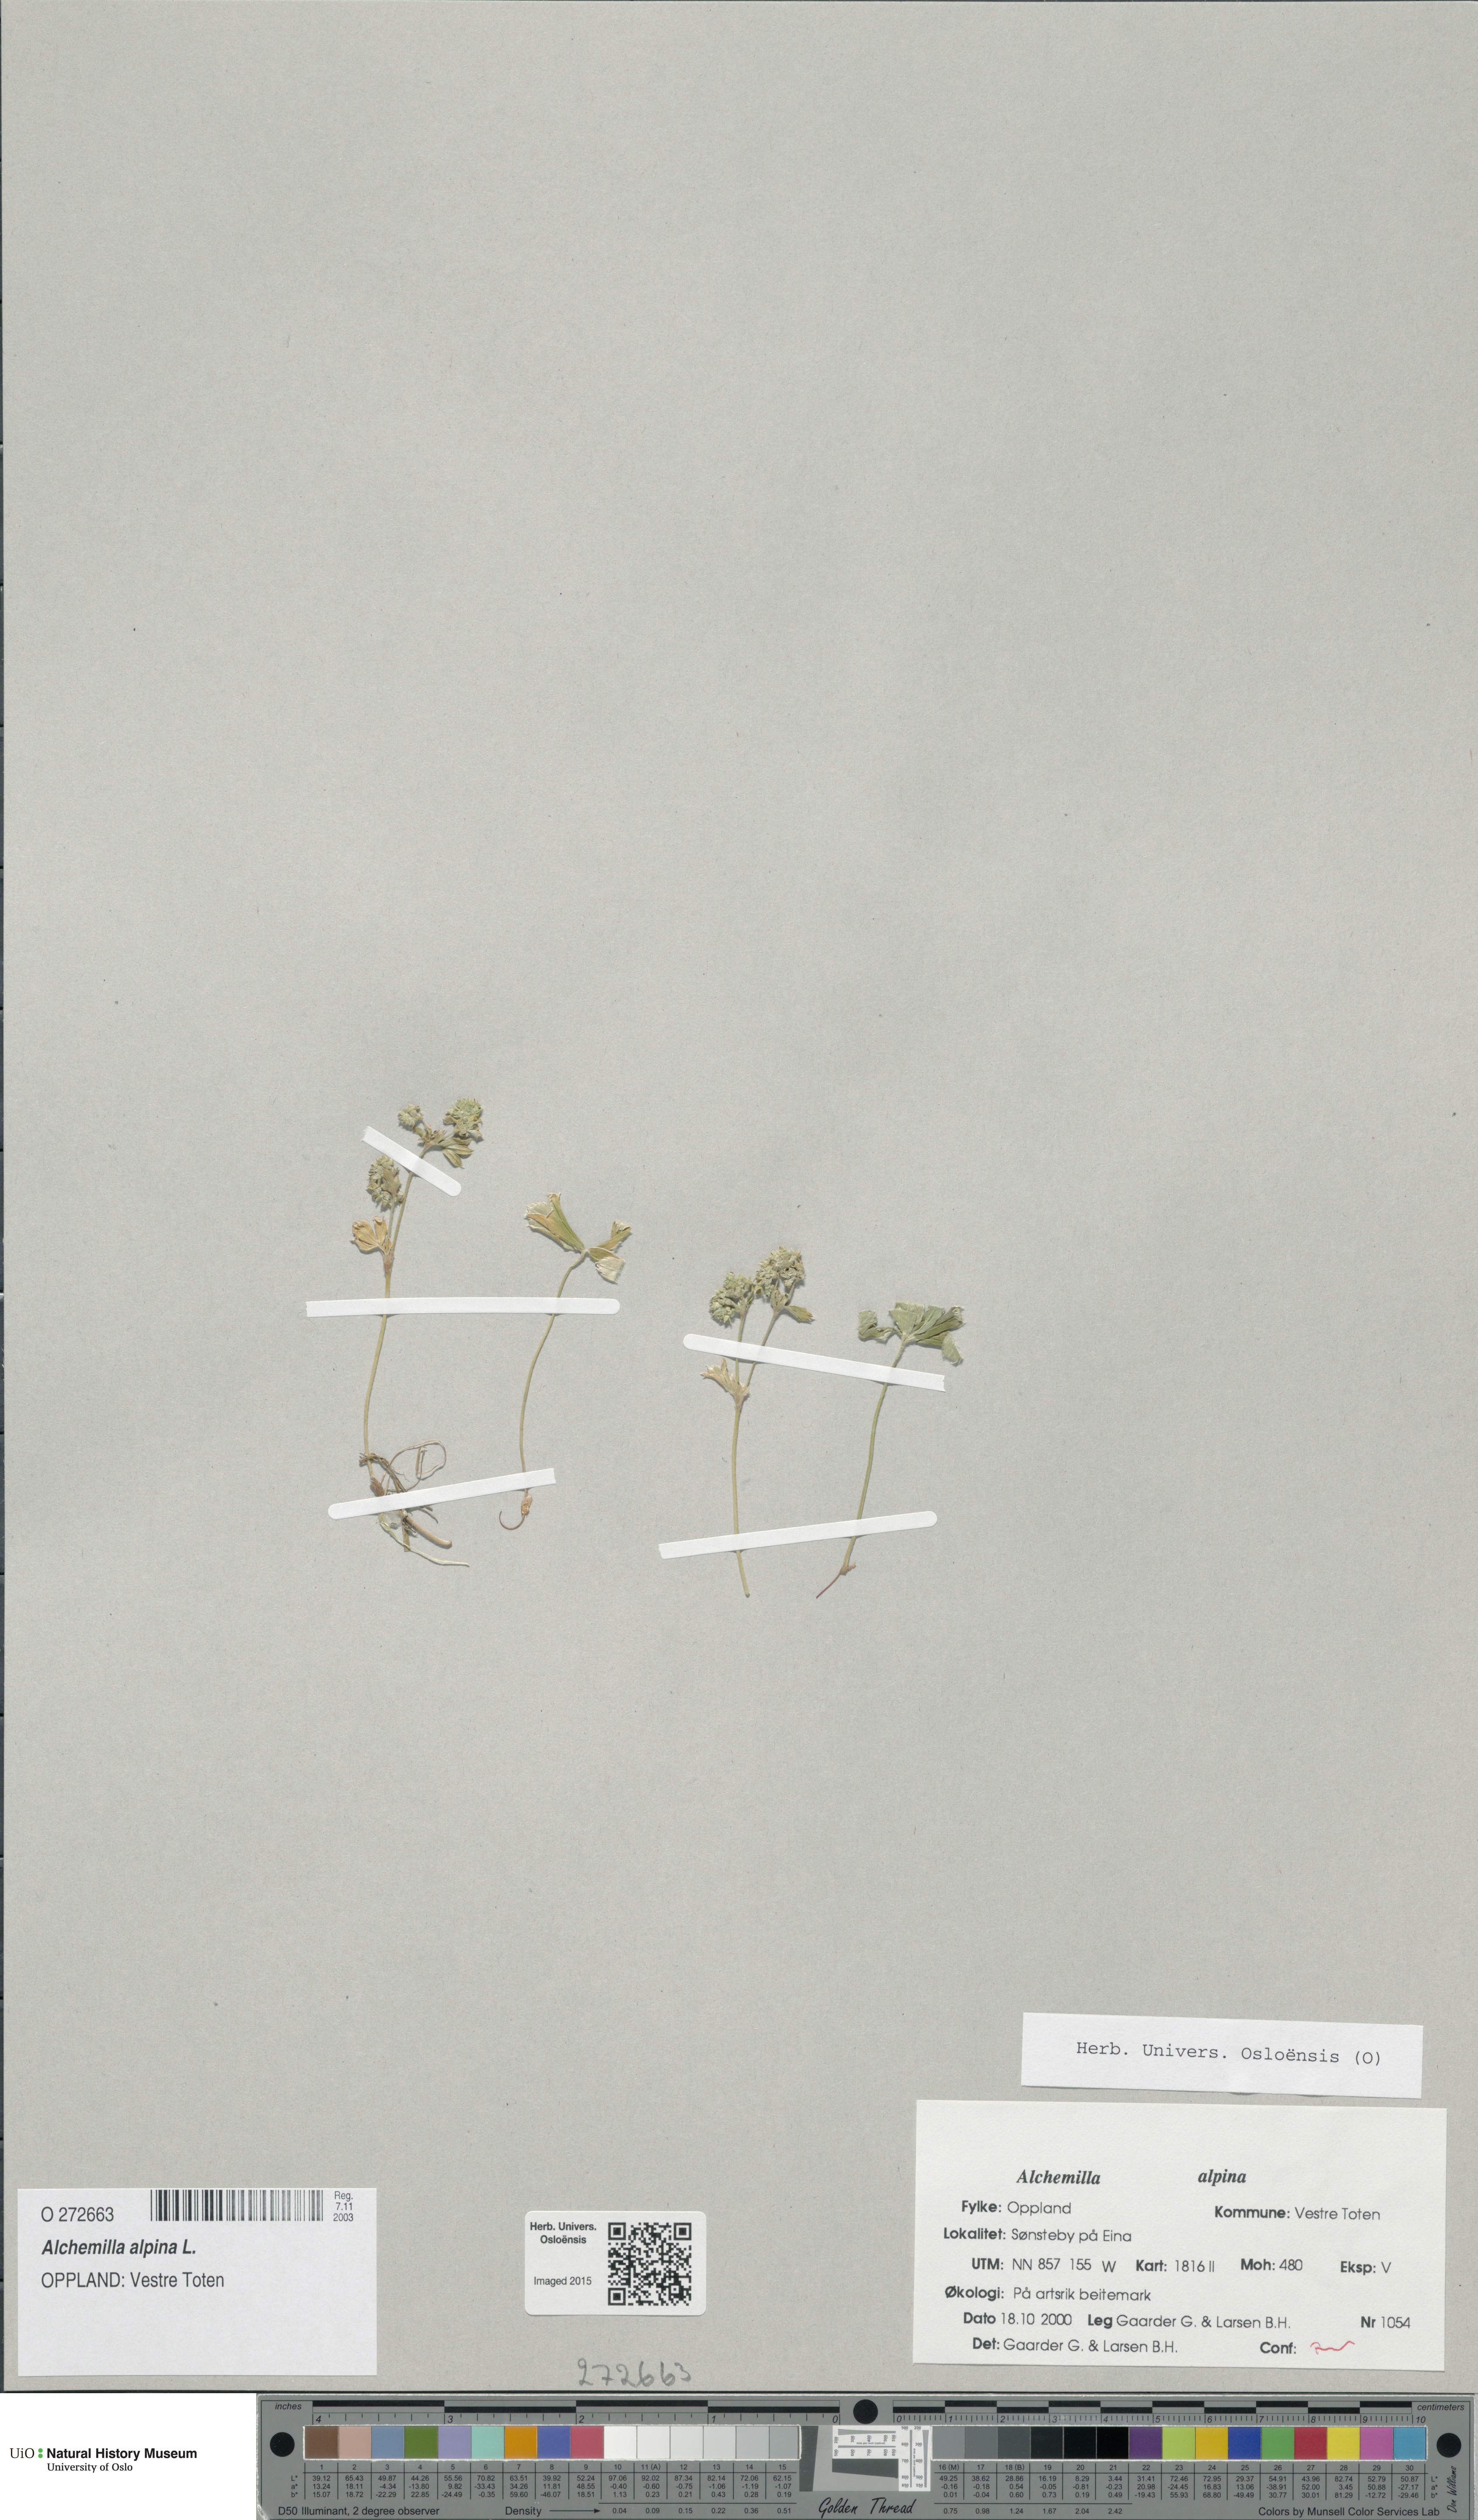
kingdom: Plantae
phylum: Tracheophyta
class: Magnoliopsida
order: Rosales
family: Rosaceae
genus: Alchemilla
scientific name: Alchemilla alpina
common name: Alpine lady's-mantle
